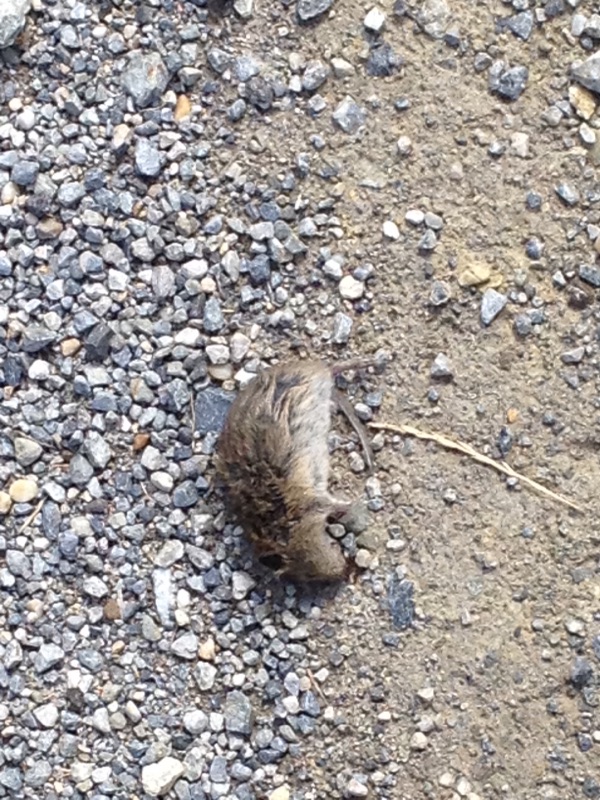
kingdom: Animalia
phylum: Chordata
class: Mammalia
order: Rodentia
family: Cricetidae
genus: Microtus
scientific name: Microtus
